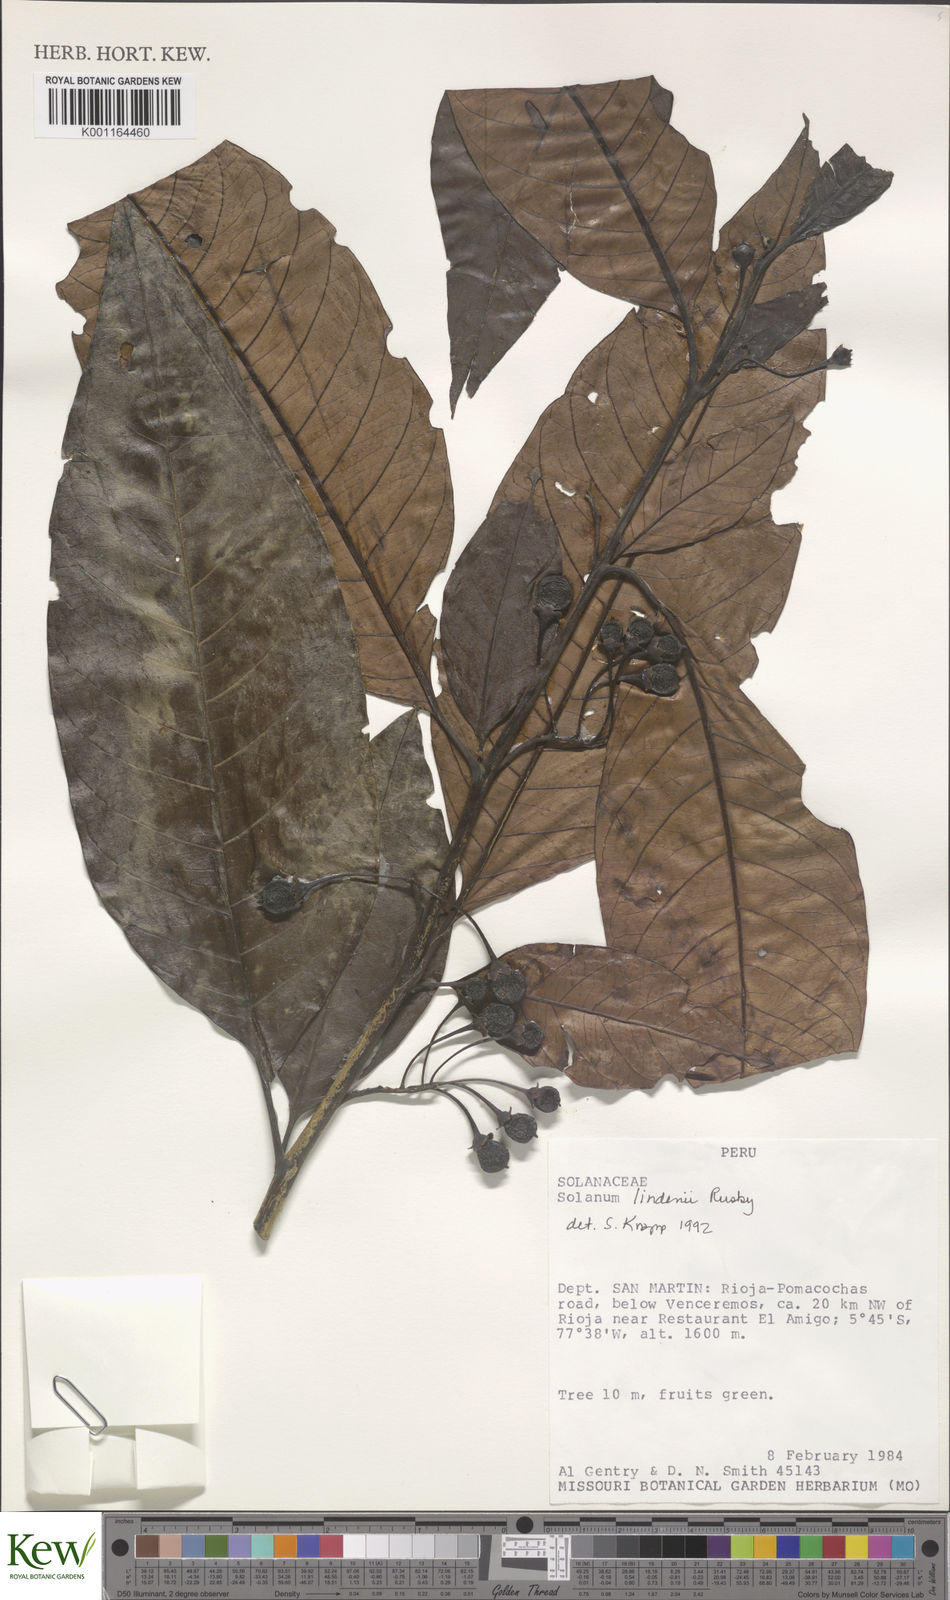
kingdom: Plantae
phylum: Tracheophyta
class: Magnoliopsida
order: Solanales
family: Solanaceae
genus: Solanum
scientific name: Solanum lindenii
